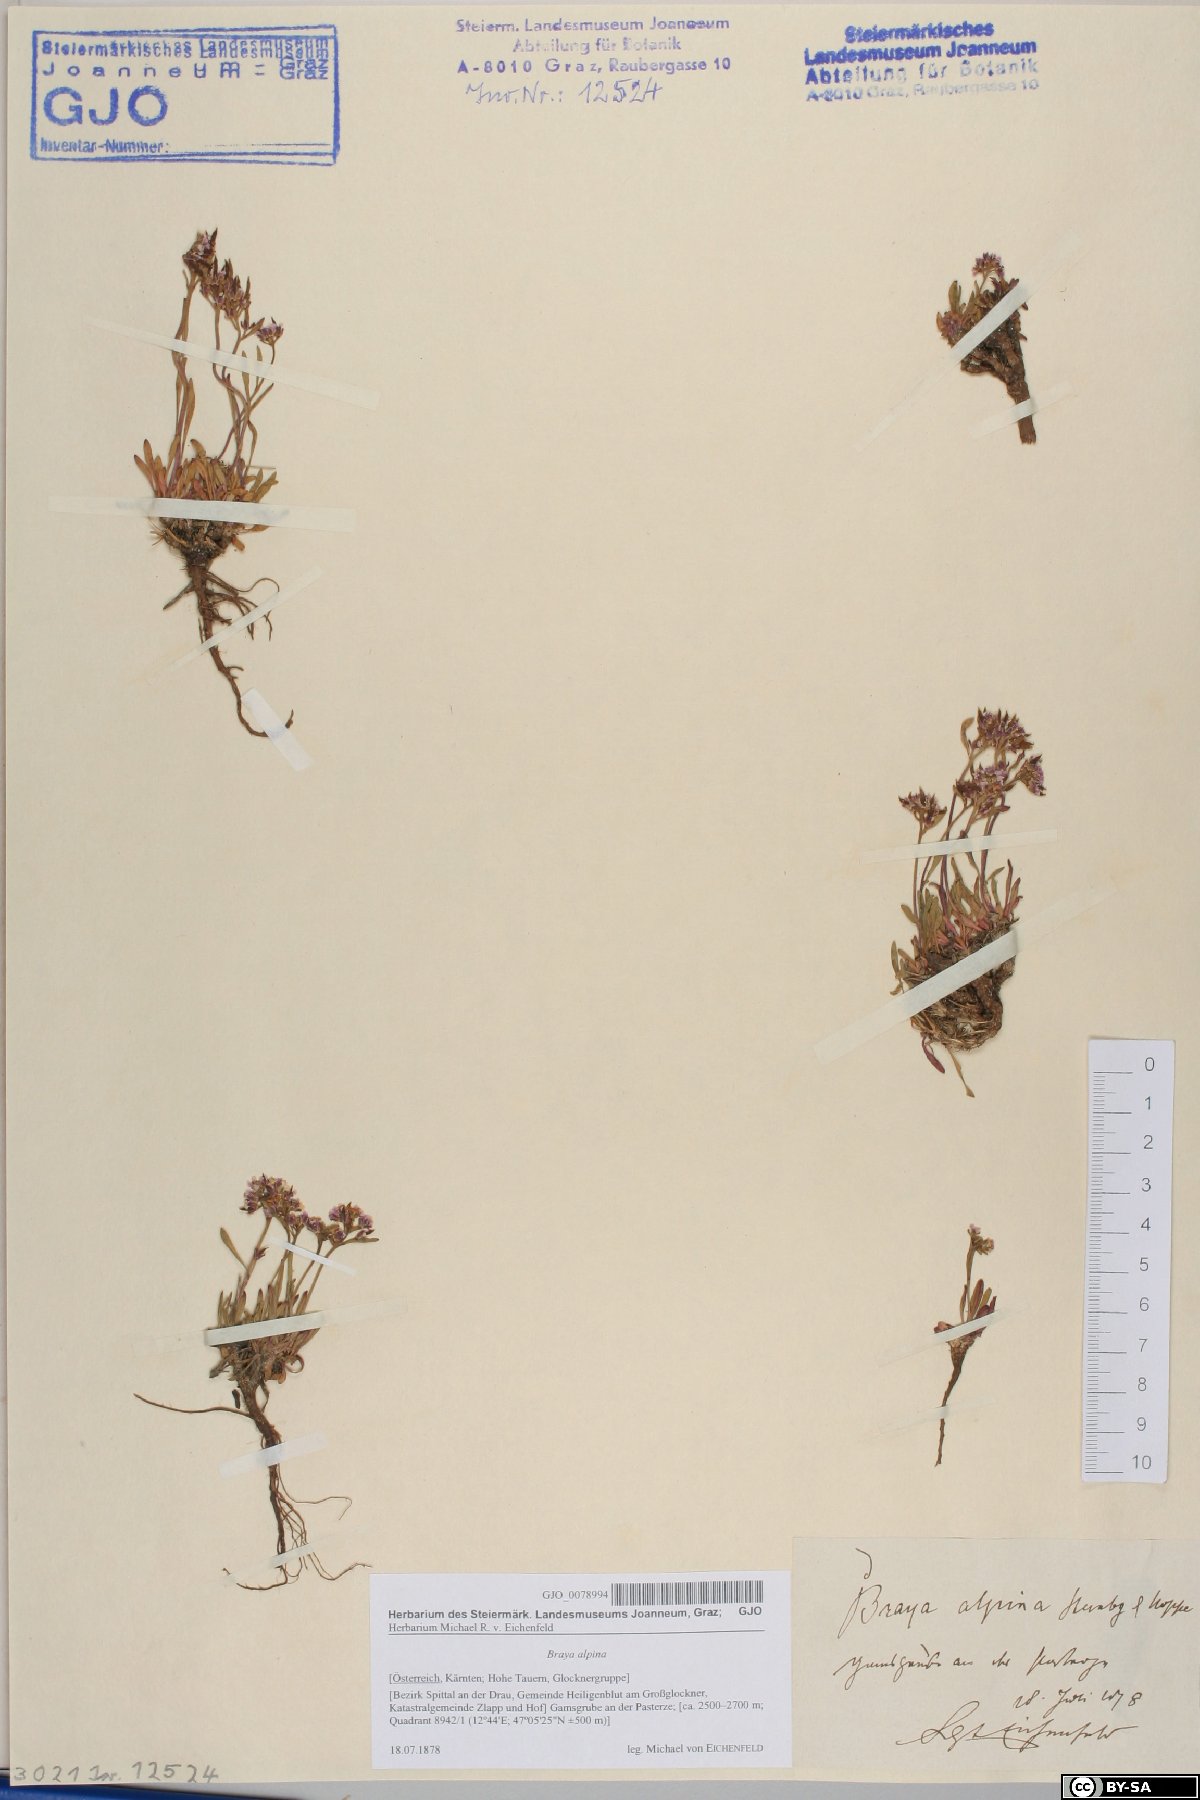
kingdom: Plantae
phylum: Tracheophyta
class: Magnoliopsida
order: Brassicales
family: Brassicaceae
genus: Braya
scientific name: Braya alpina
